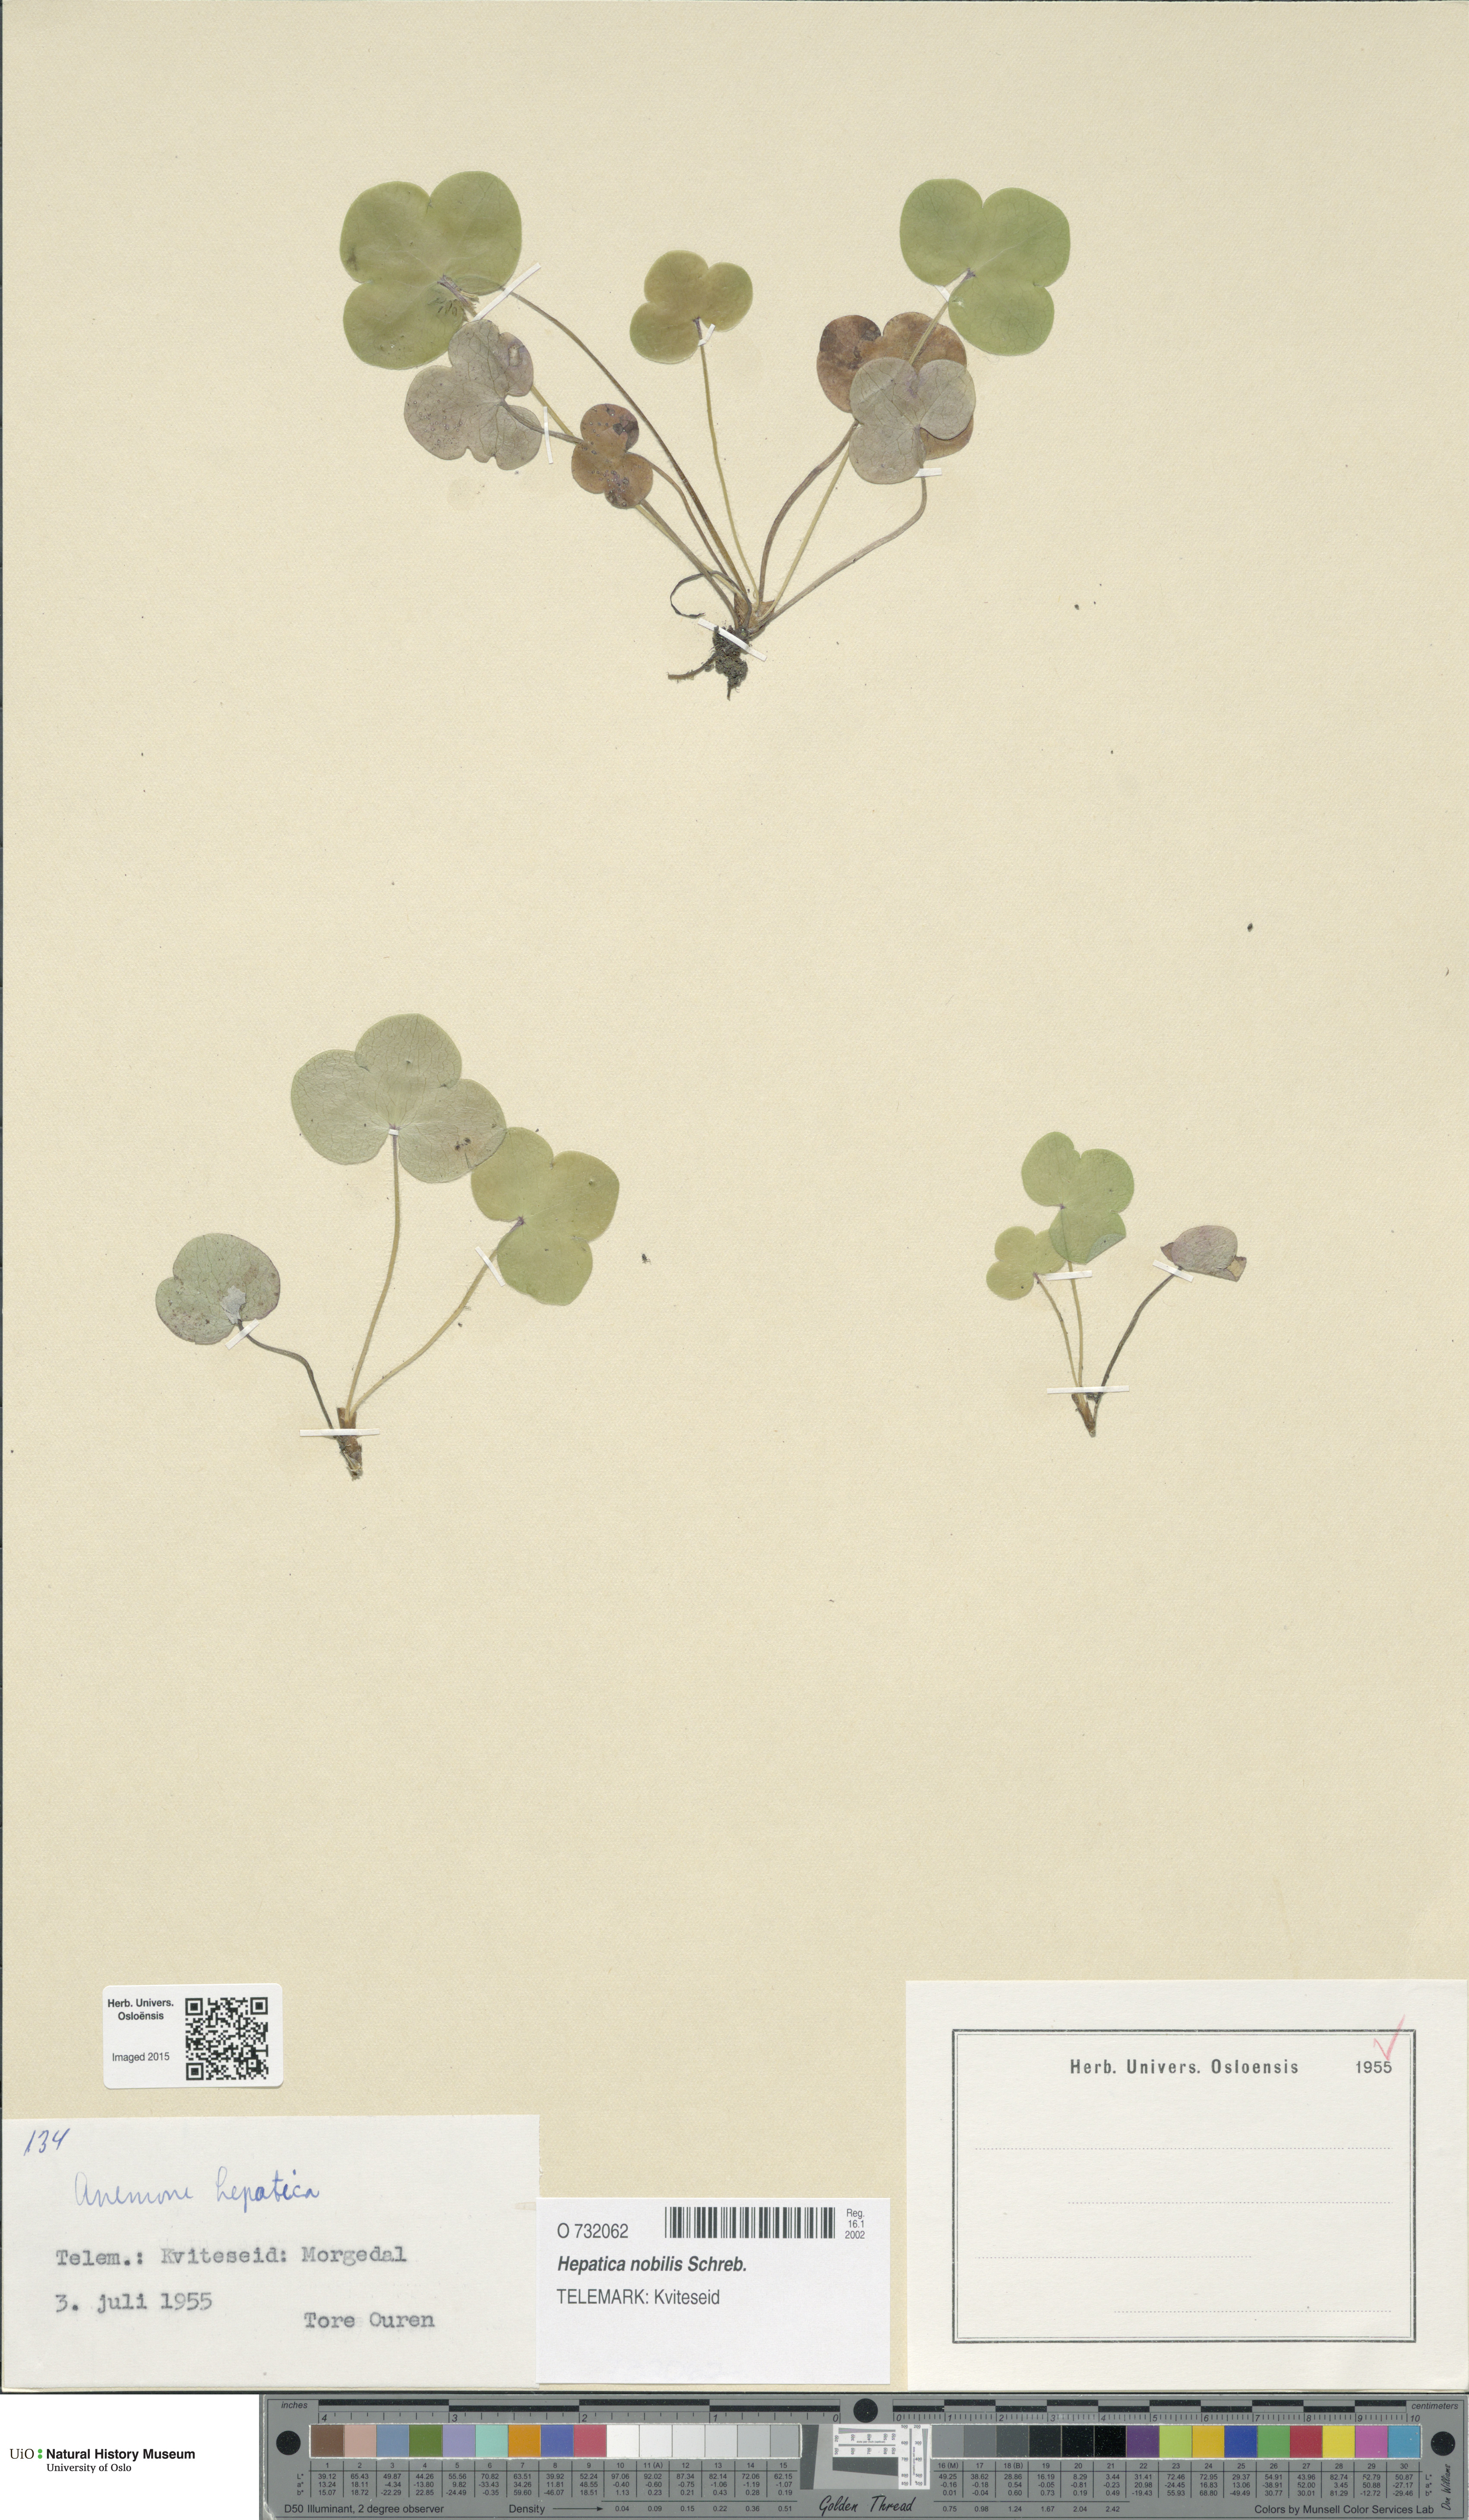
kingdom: Plantae
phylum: Tracheophyta
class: Magnoliopsida
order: Ranunculales
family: Ranunculaceae
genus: Hepatica
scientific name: Hepatica nobilis
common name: Liverleaf
